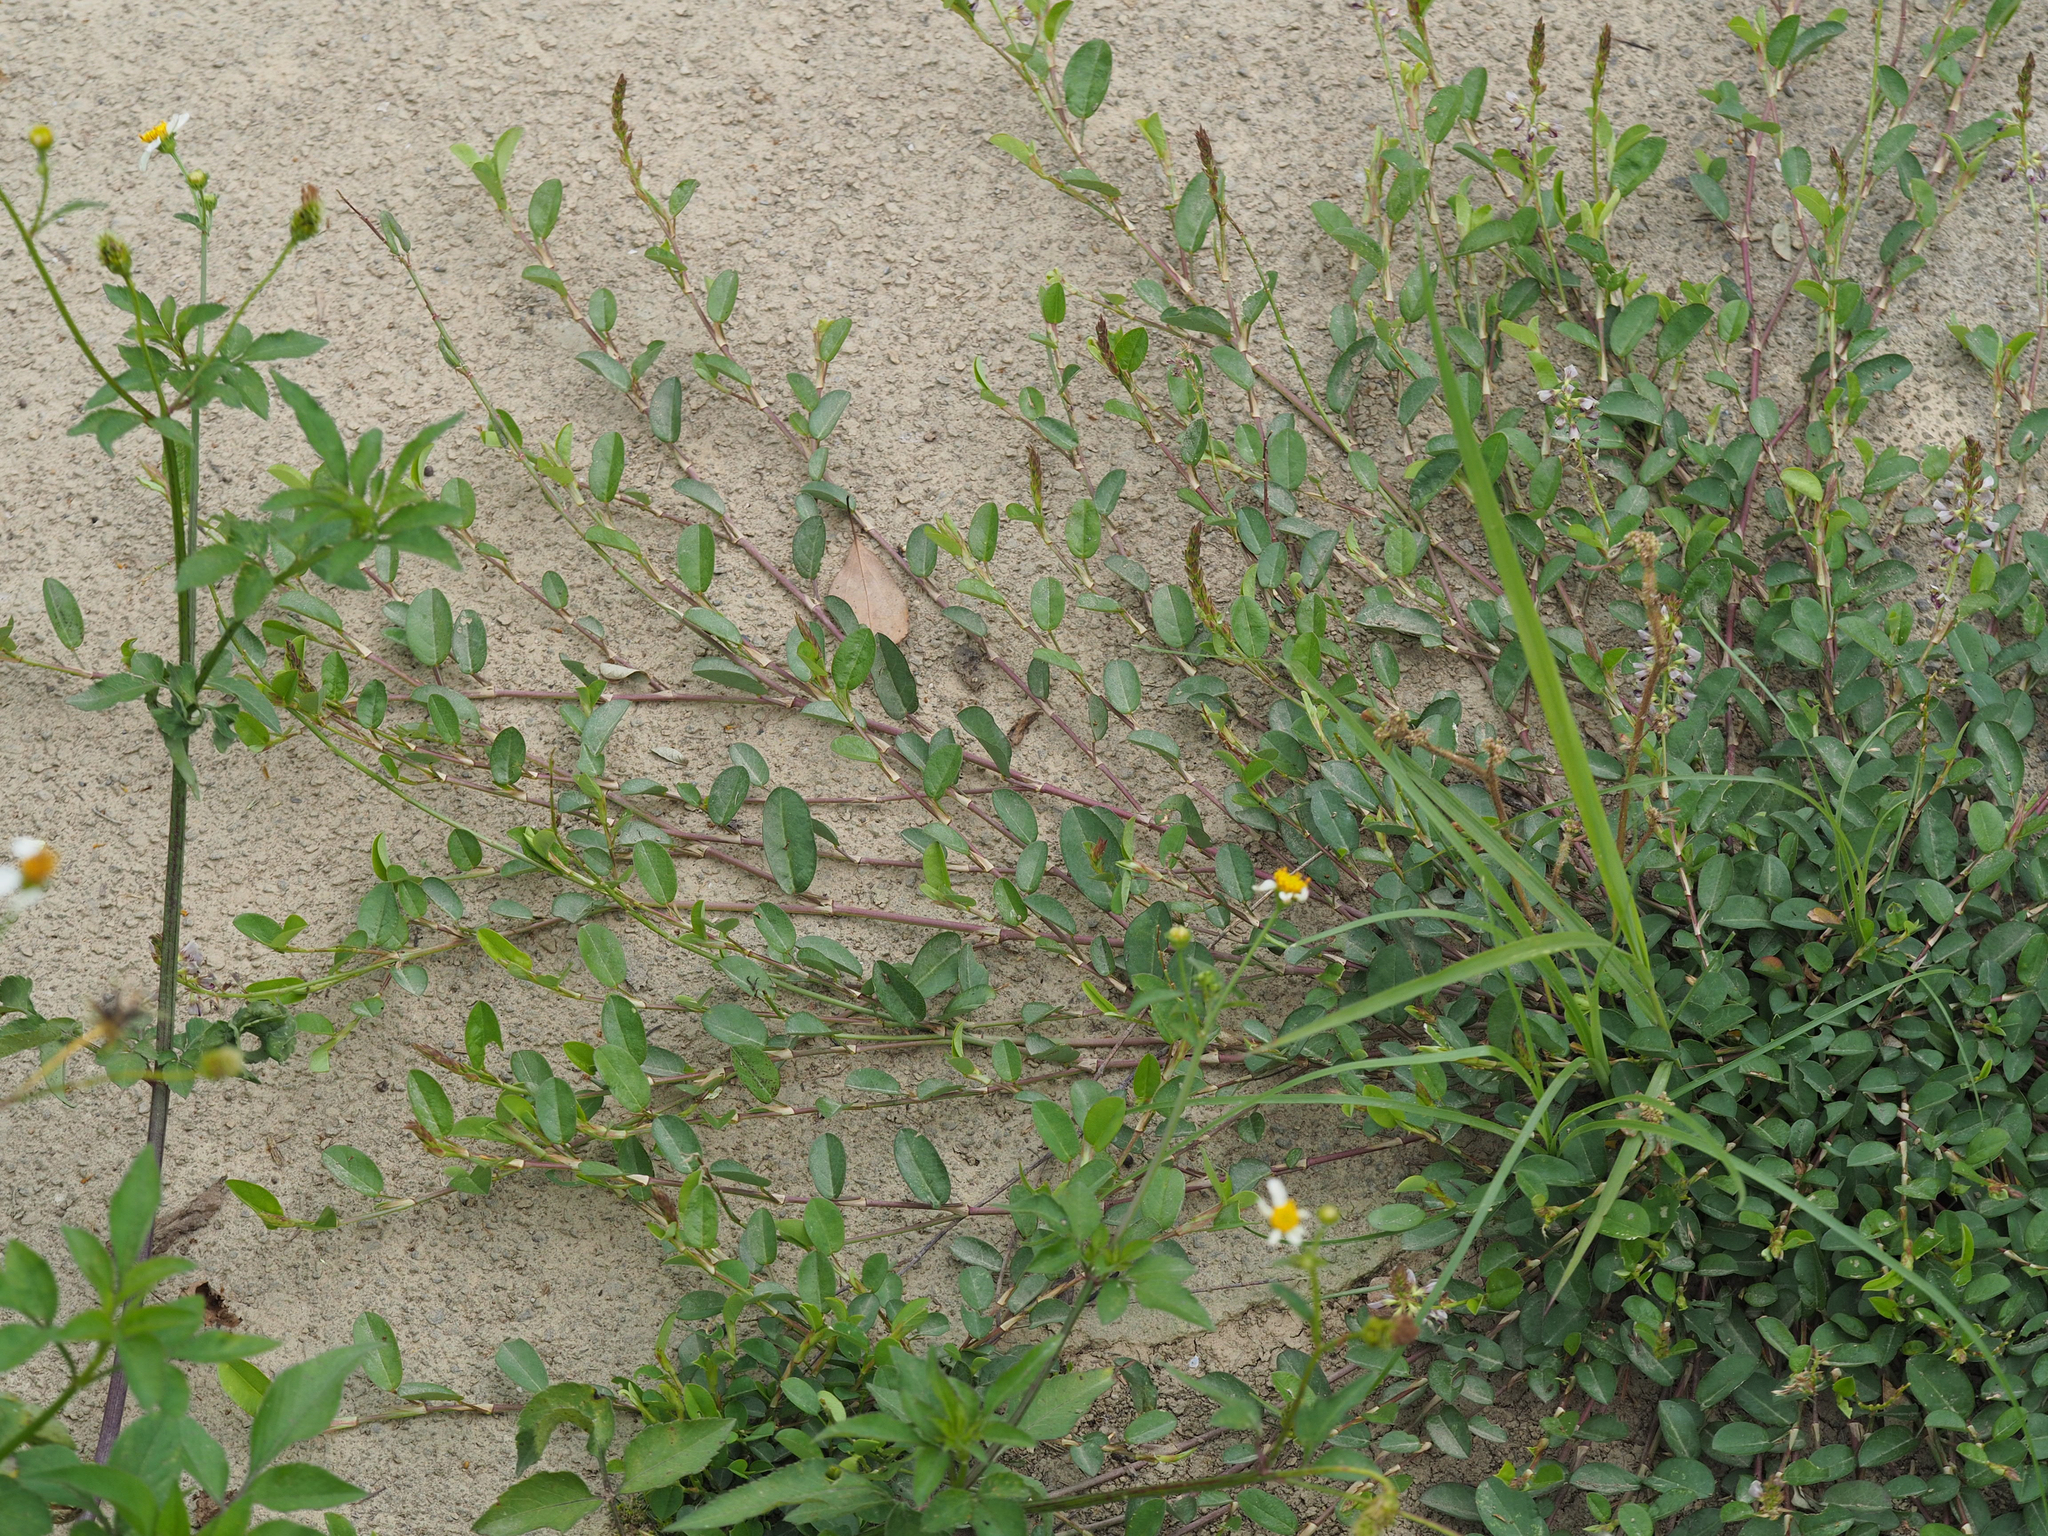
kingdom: Plantae
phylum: Tracheophyta
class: Magnoliopsida
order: Fabales
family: Fabaceae
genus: Alysicarpus
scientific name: Alysicarpus vaginalis
